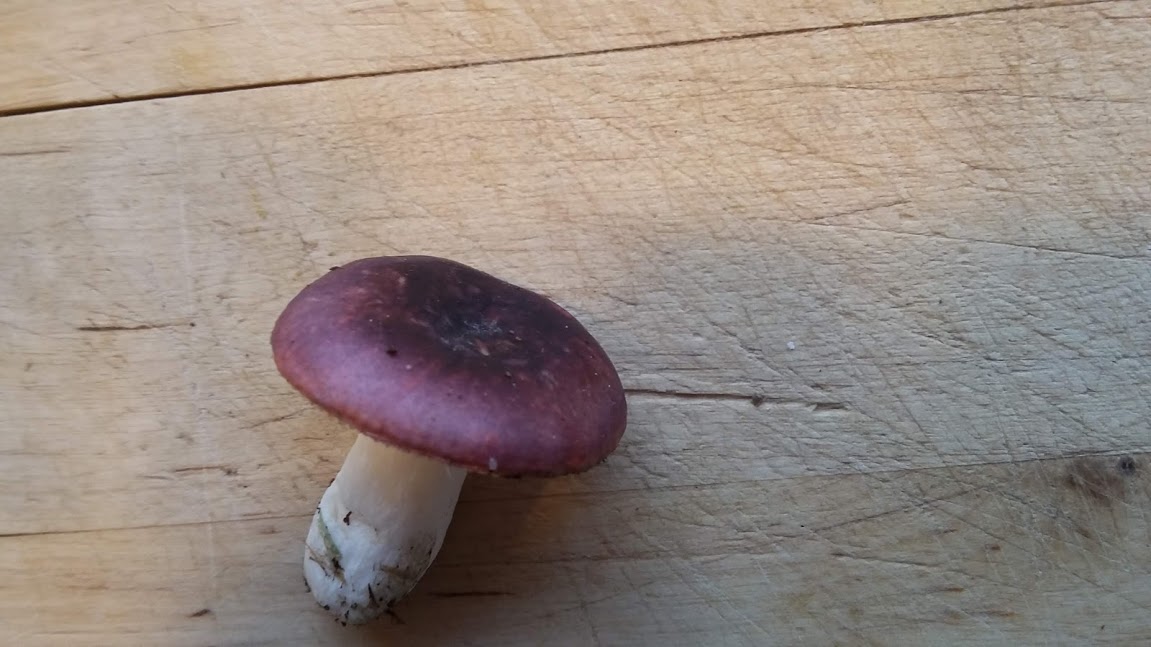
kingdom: Fungi
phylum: Basidiomycota
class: Agaricomycetes
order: Russulales
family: Russulaceae
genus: Russula
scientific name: Russula fragilis
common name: savbladet skørhat
